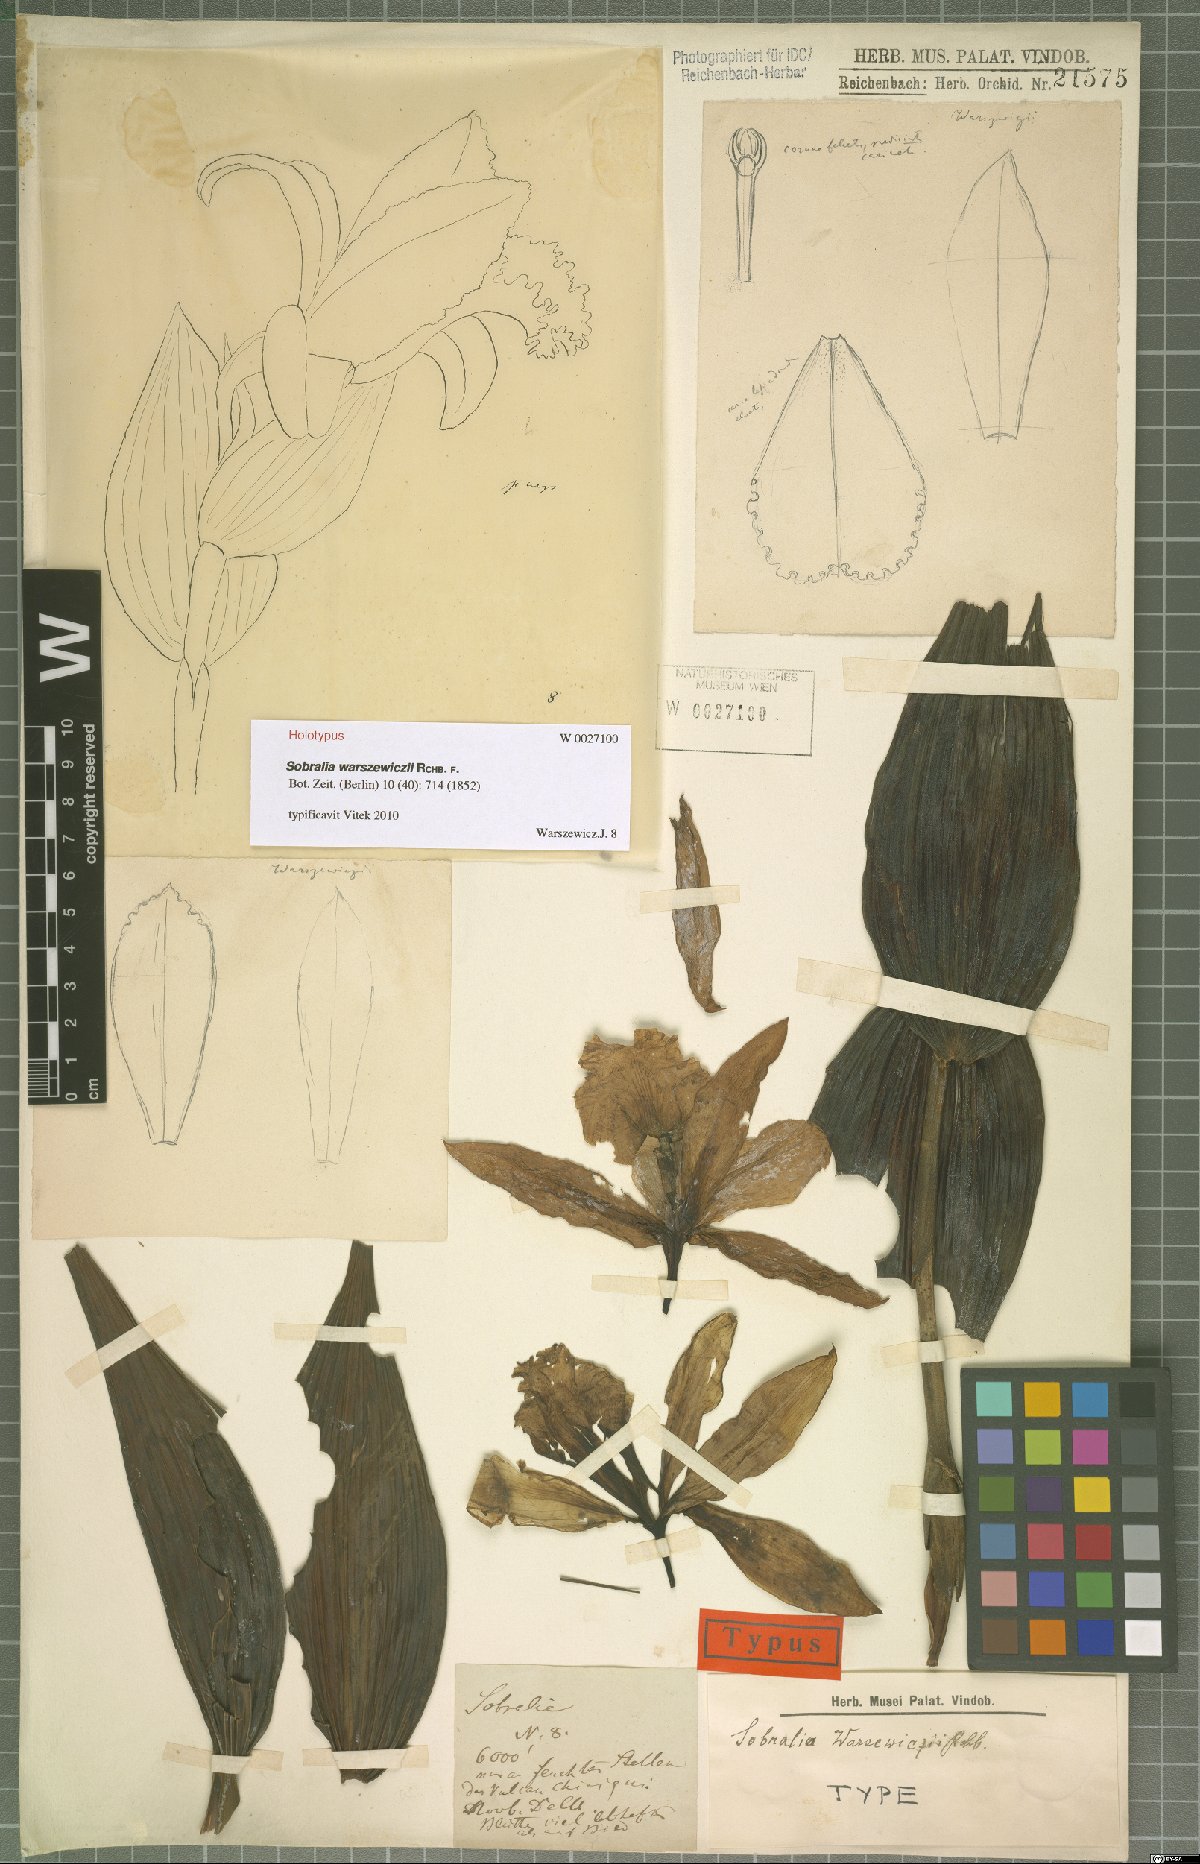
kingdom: Plantae
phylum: Tracheophyta
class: Liliopsida
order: Asparagales
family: Orchidaceae
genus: Sobralia
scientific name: Sobralia warszewiczii
